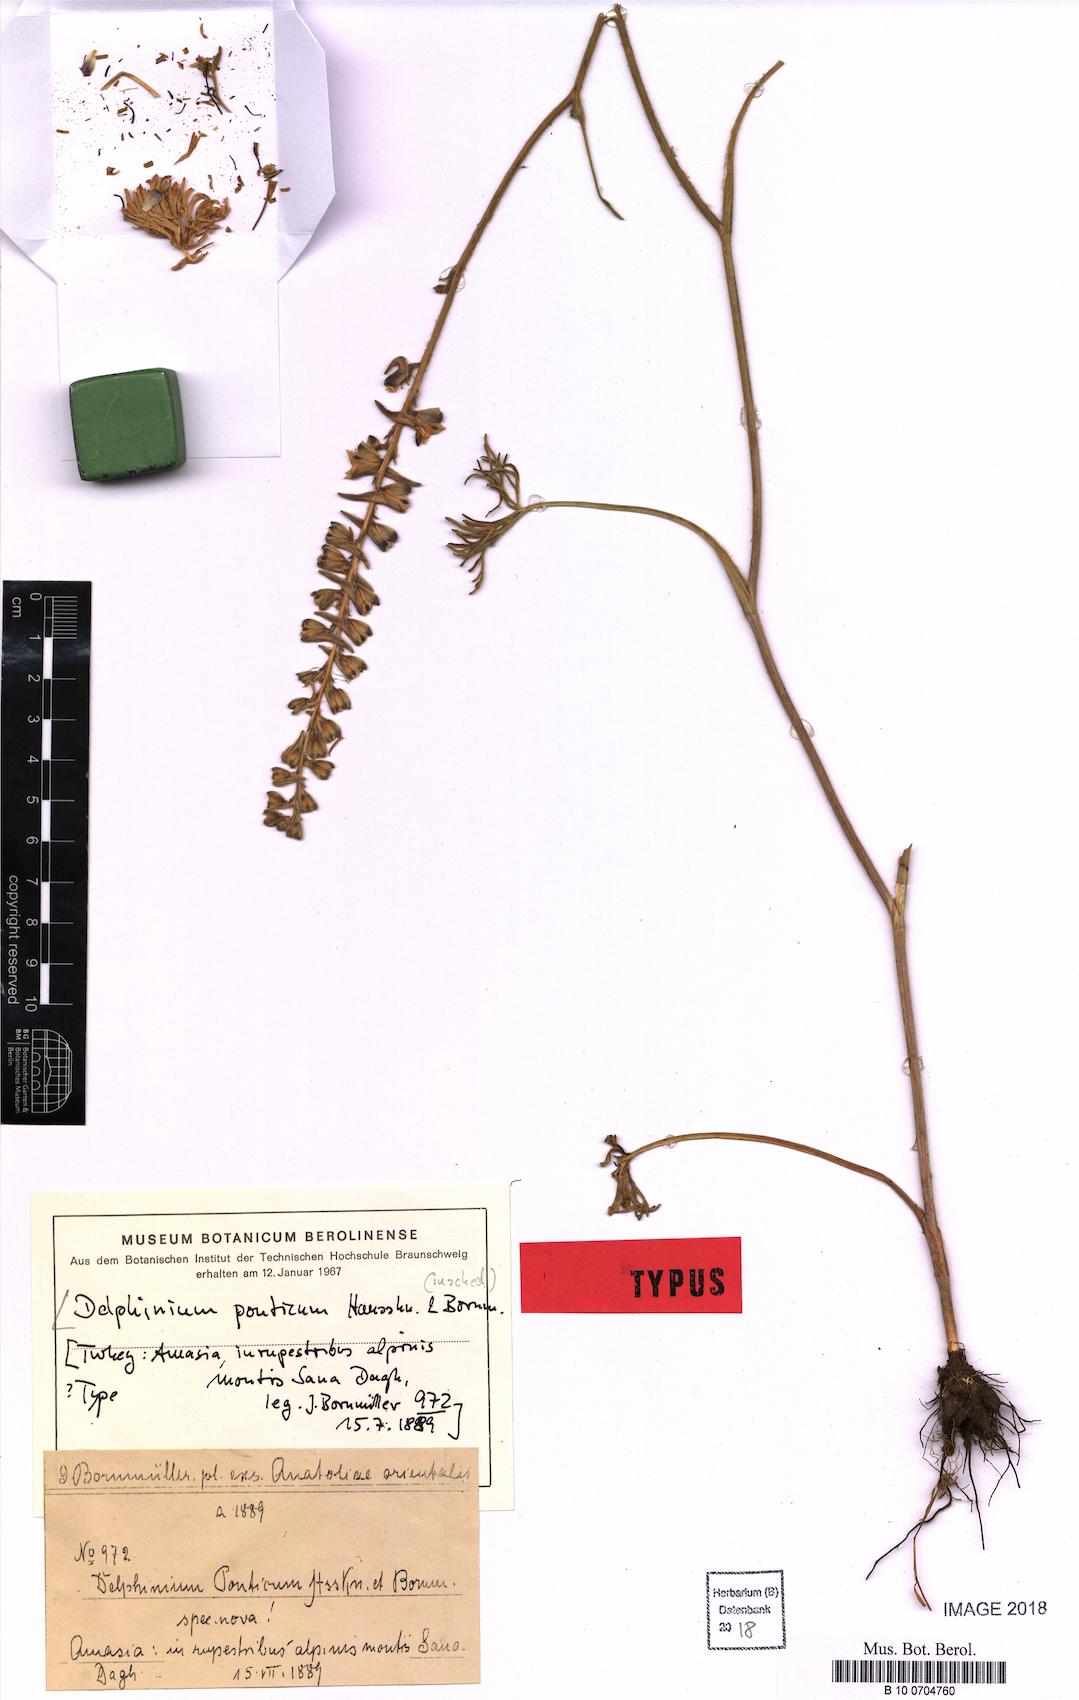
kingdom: Plantae
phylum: Tracheophyta
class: Magnoliopsida
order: Ranunculales
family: Ranunculaceae
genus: Delphinium
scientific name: Delphinium albiflorum
